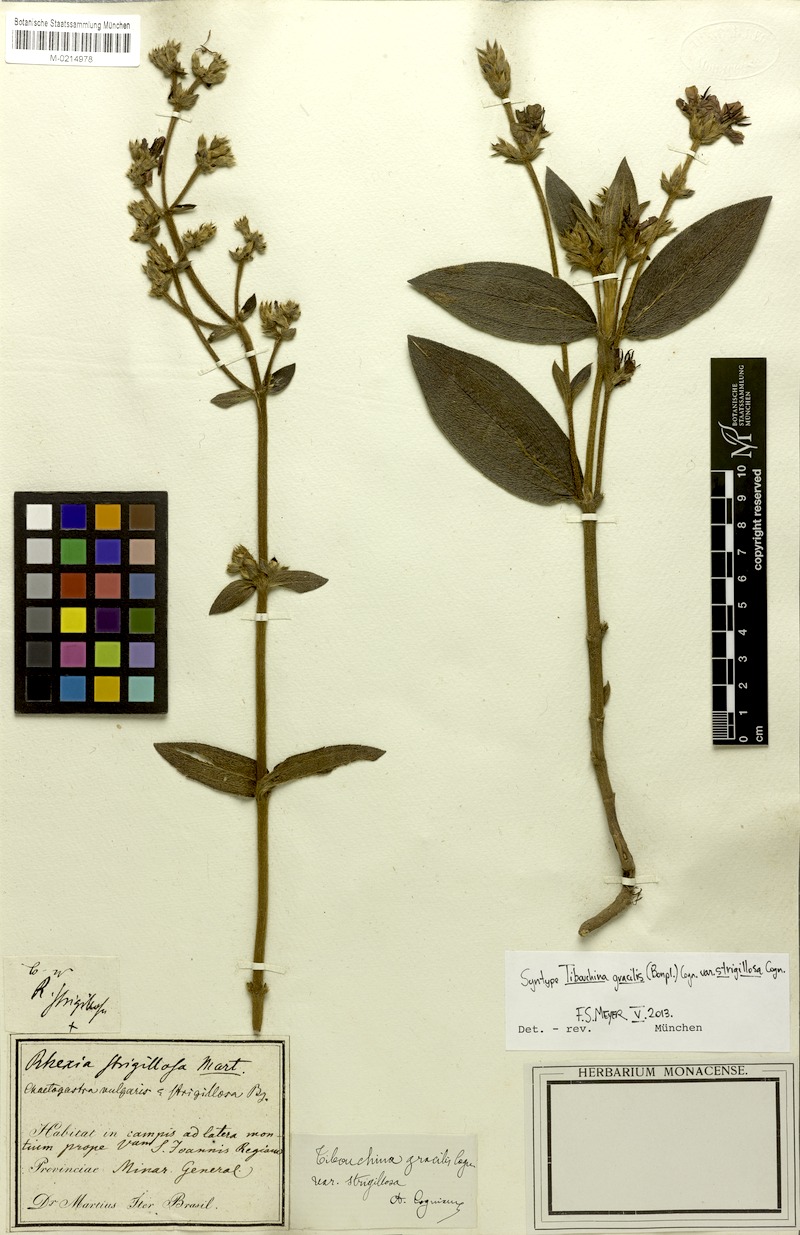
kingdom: Plantae
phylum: Tracheophyta
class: Magnoliopsida
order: Myrtales
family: Melastomataceae
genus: Chaetogastra
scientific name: Chaetogastra gracilis
